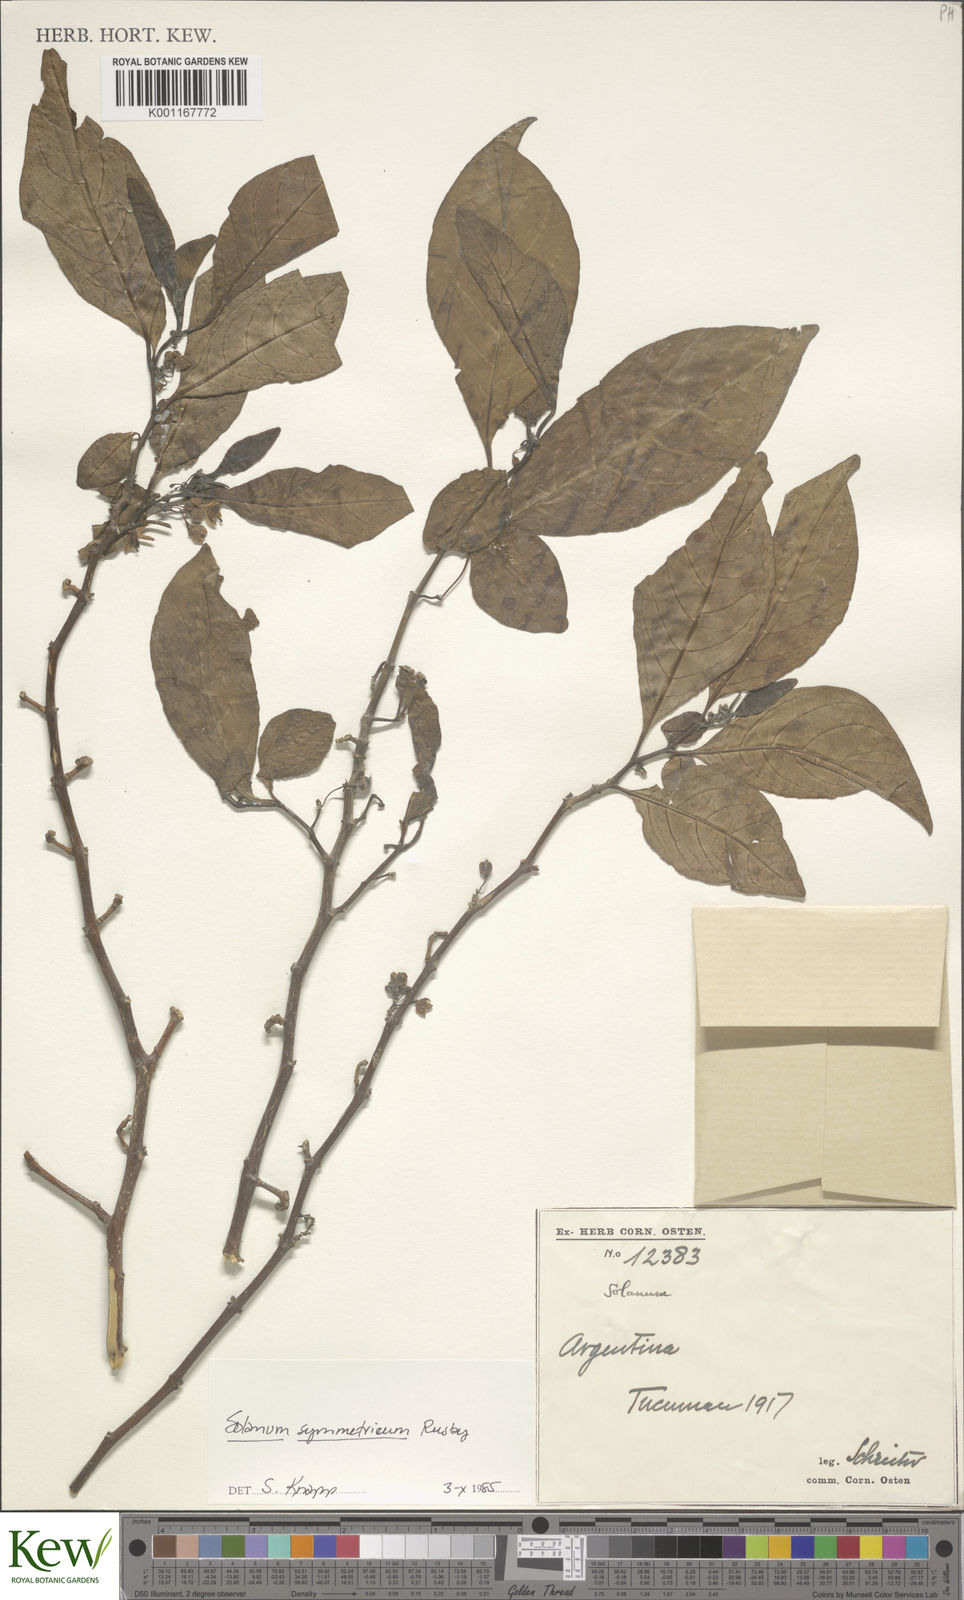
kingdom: Plantae
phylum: Tracheophyta
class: Magnoliopsida
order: Solanales
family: Solanaceae
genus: Solanum
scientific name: Solanum symmetricum
